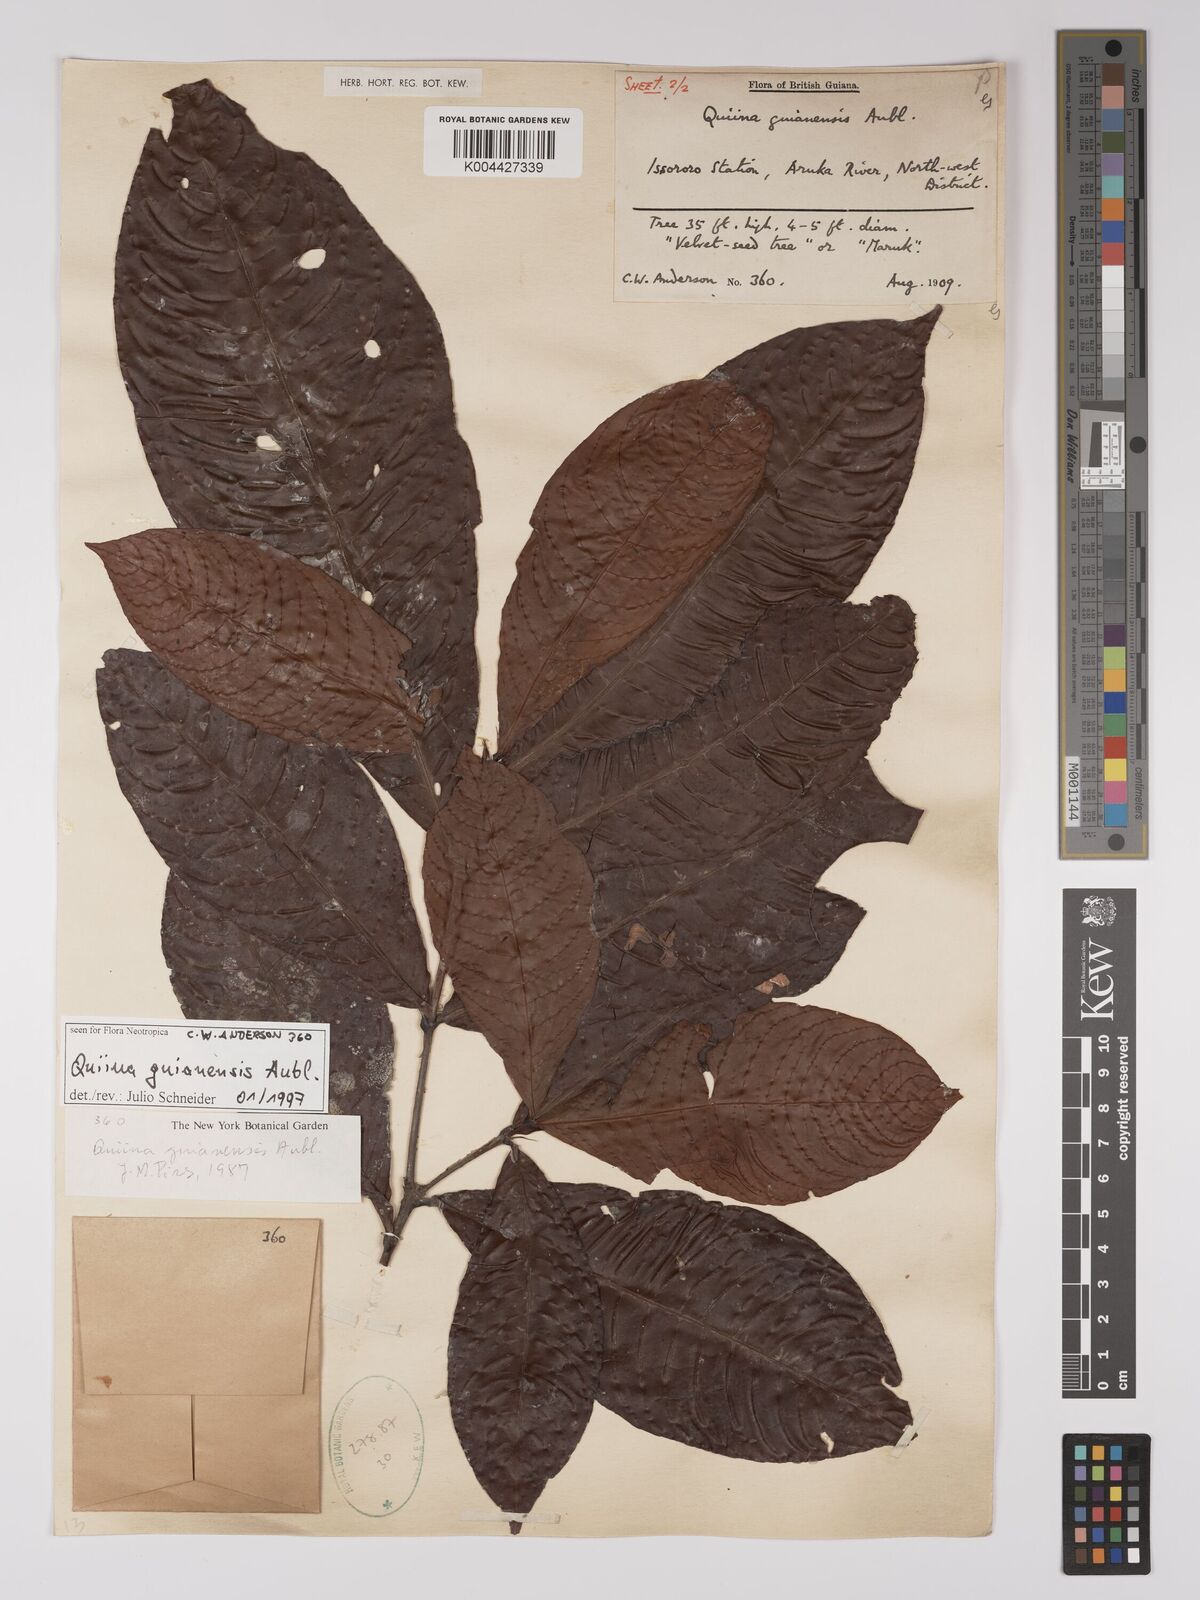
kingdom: Plantae
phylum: Tracheophyta
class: Magnoliopsida
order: Malpighiales
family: Quiinaceae
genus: Quiina
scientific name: Quiina guianensis
